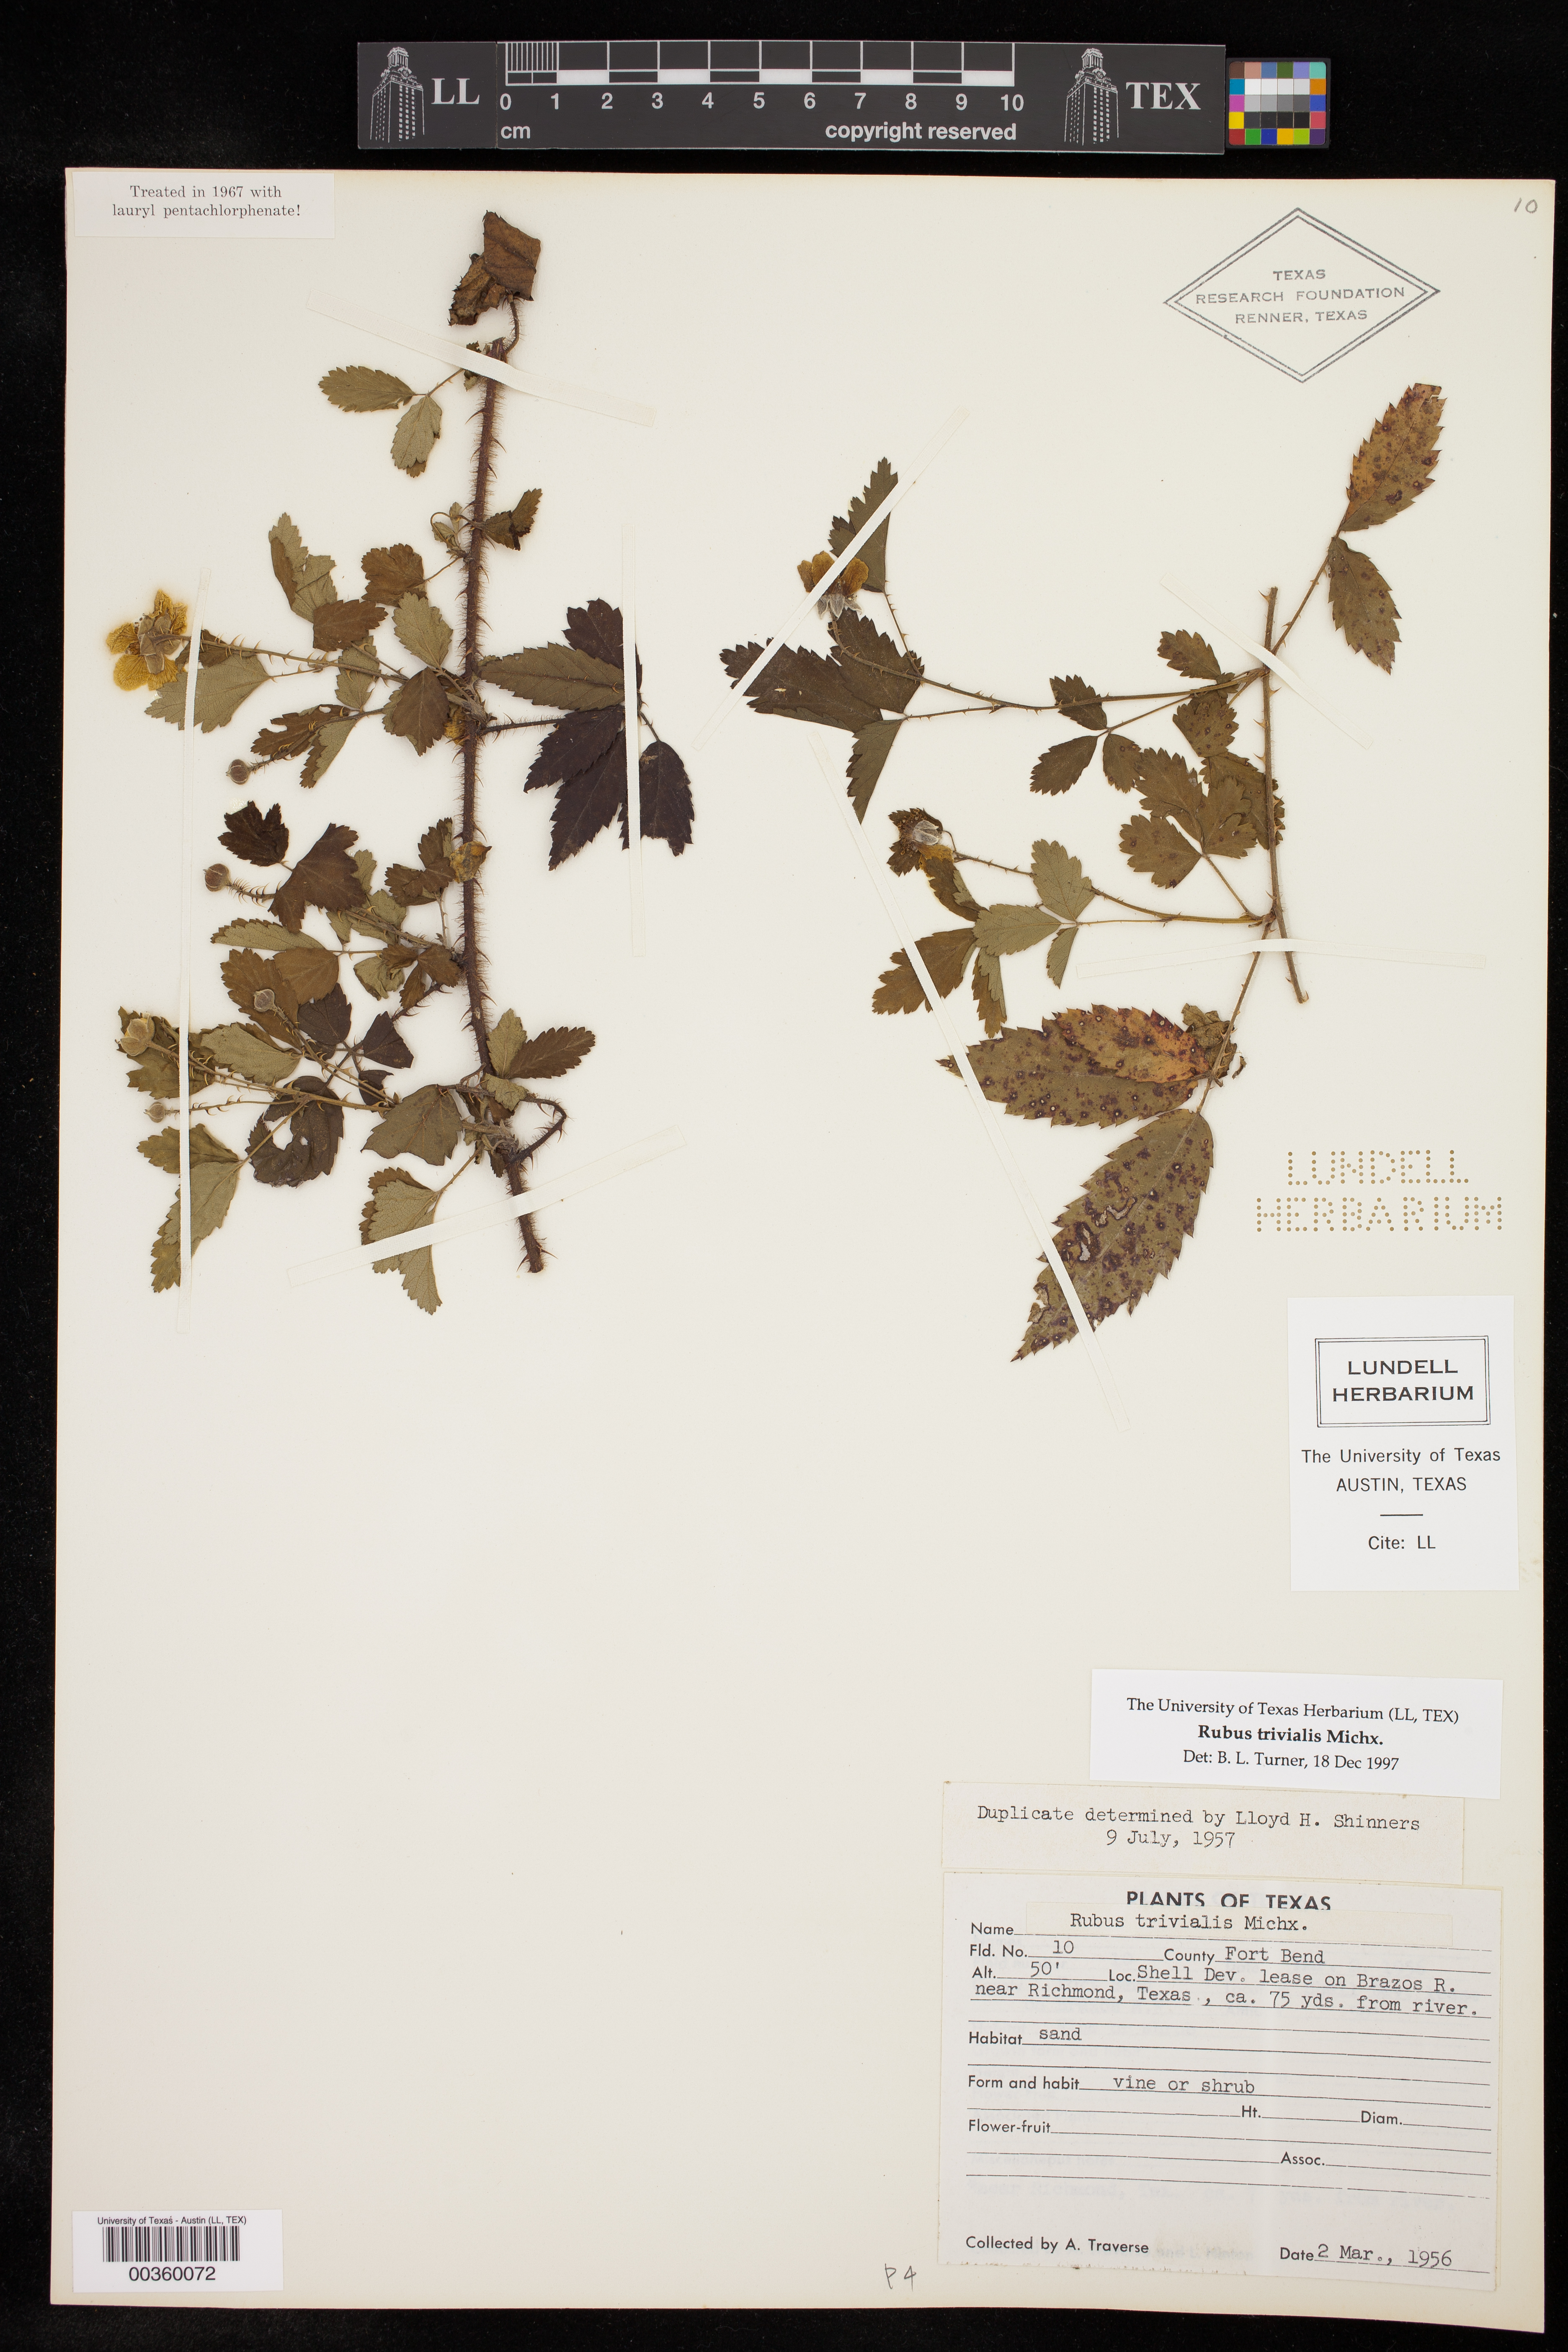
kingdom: Plantae
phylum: Tracheophyta
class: Magnoliopsida
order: Rosales
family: Rosaceae
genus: Rubus
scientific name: Rubus trivialis
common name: Southern dewberry
